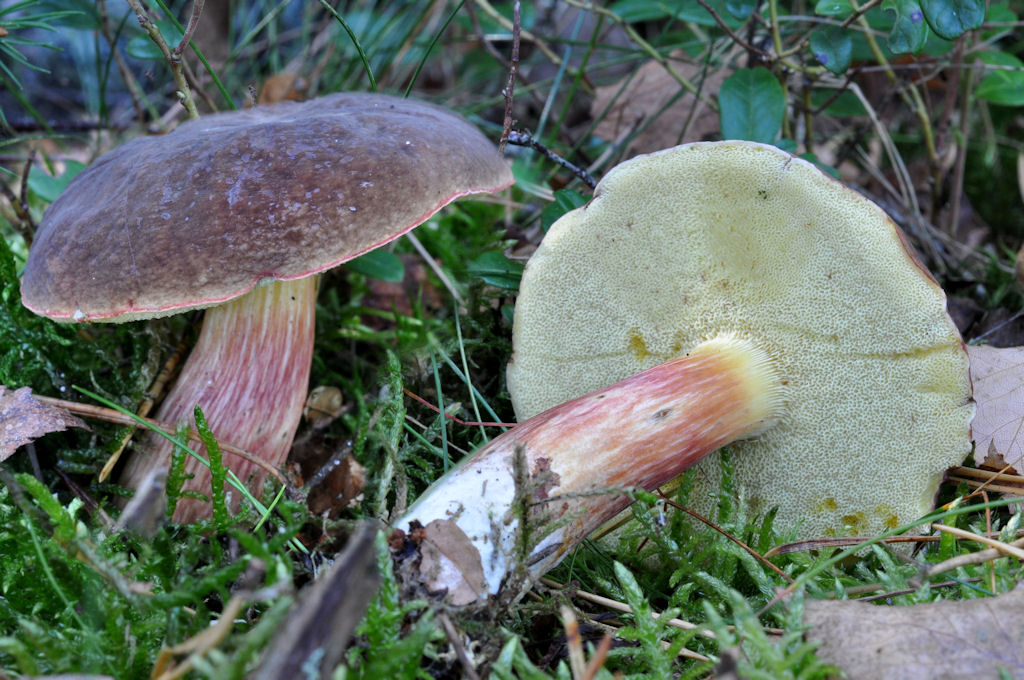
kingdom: Fungi
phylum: Basidiomycota
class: Agaricomycetes
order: Boletales
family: Boletaceae
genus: Xerocomellus
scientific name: Xerocomellus pruinatus
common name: dugget rørhat
